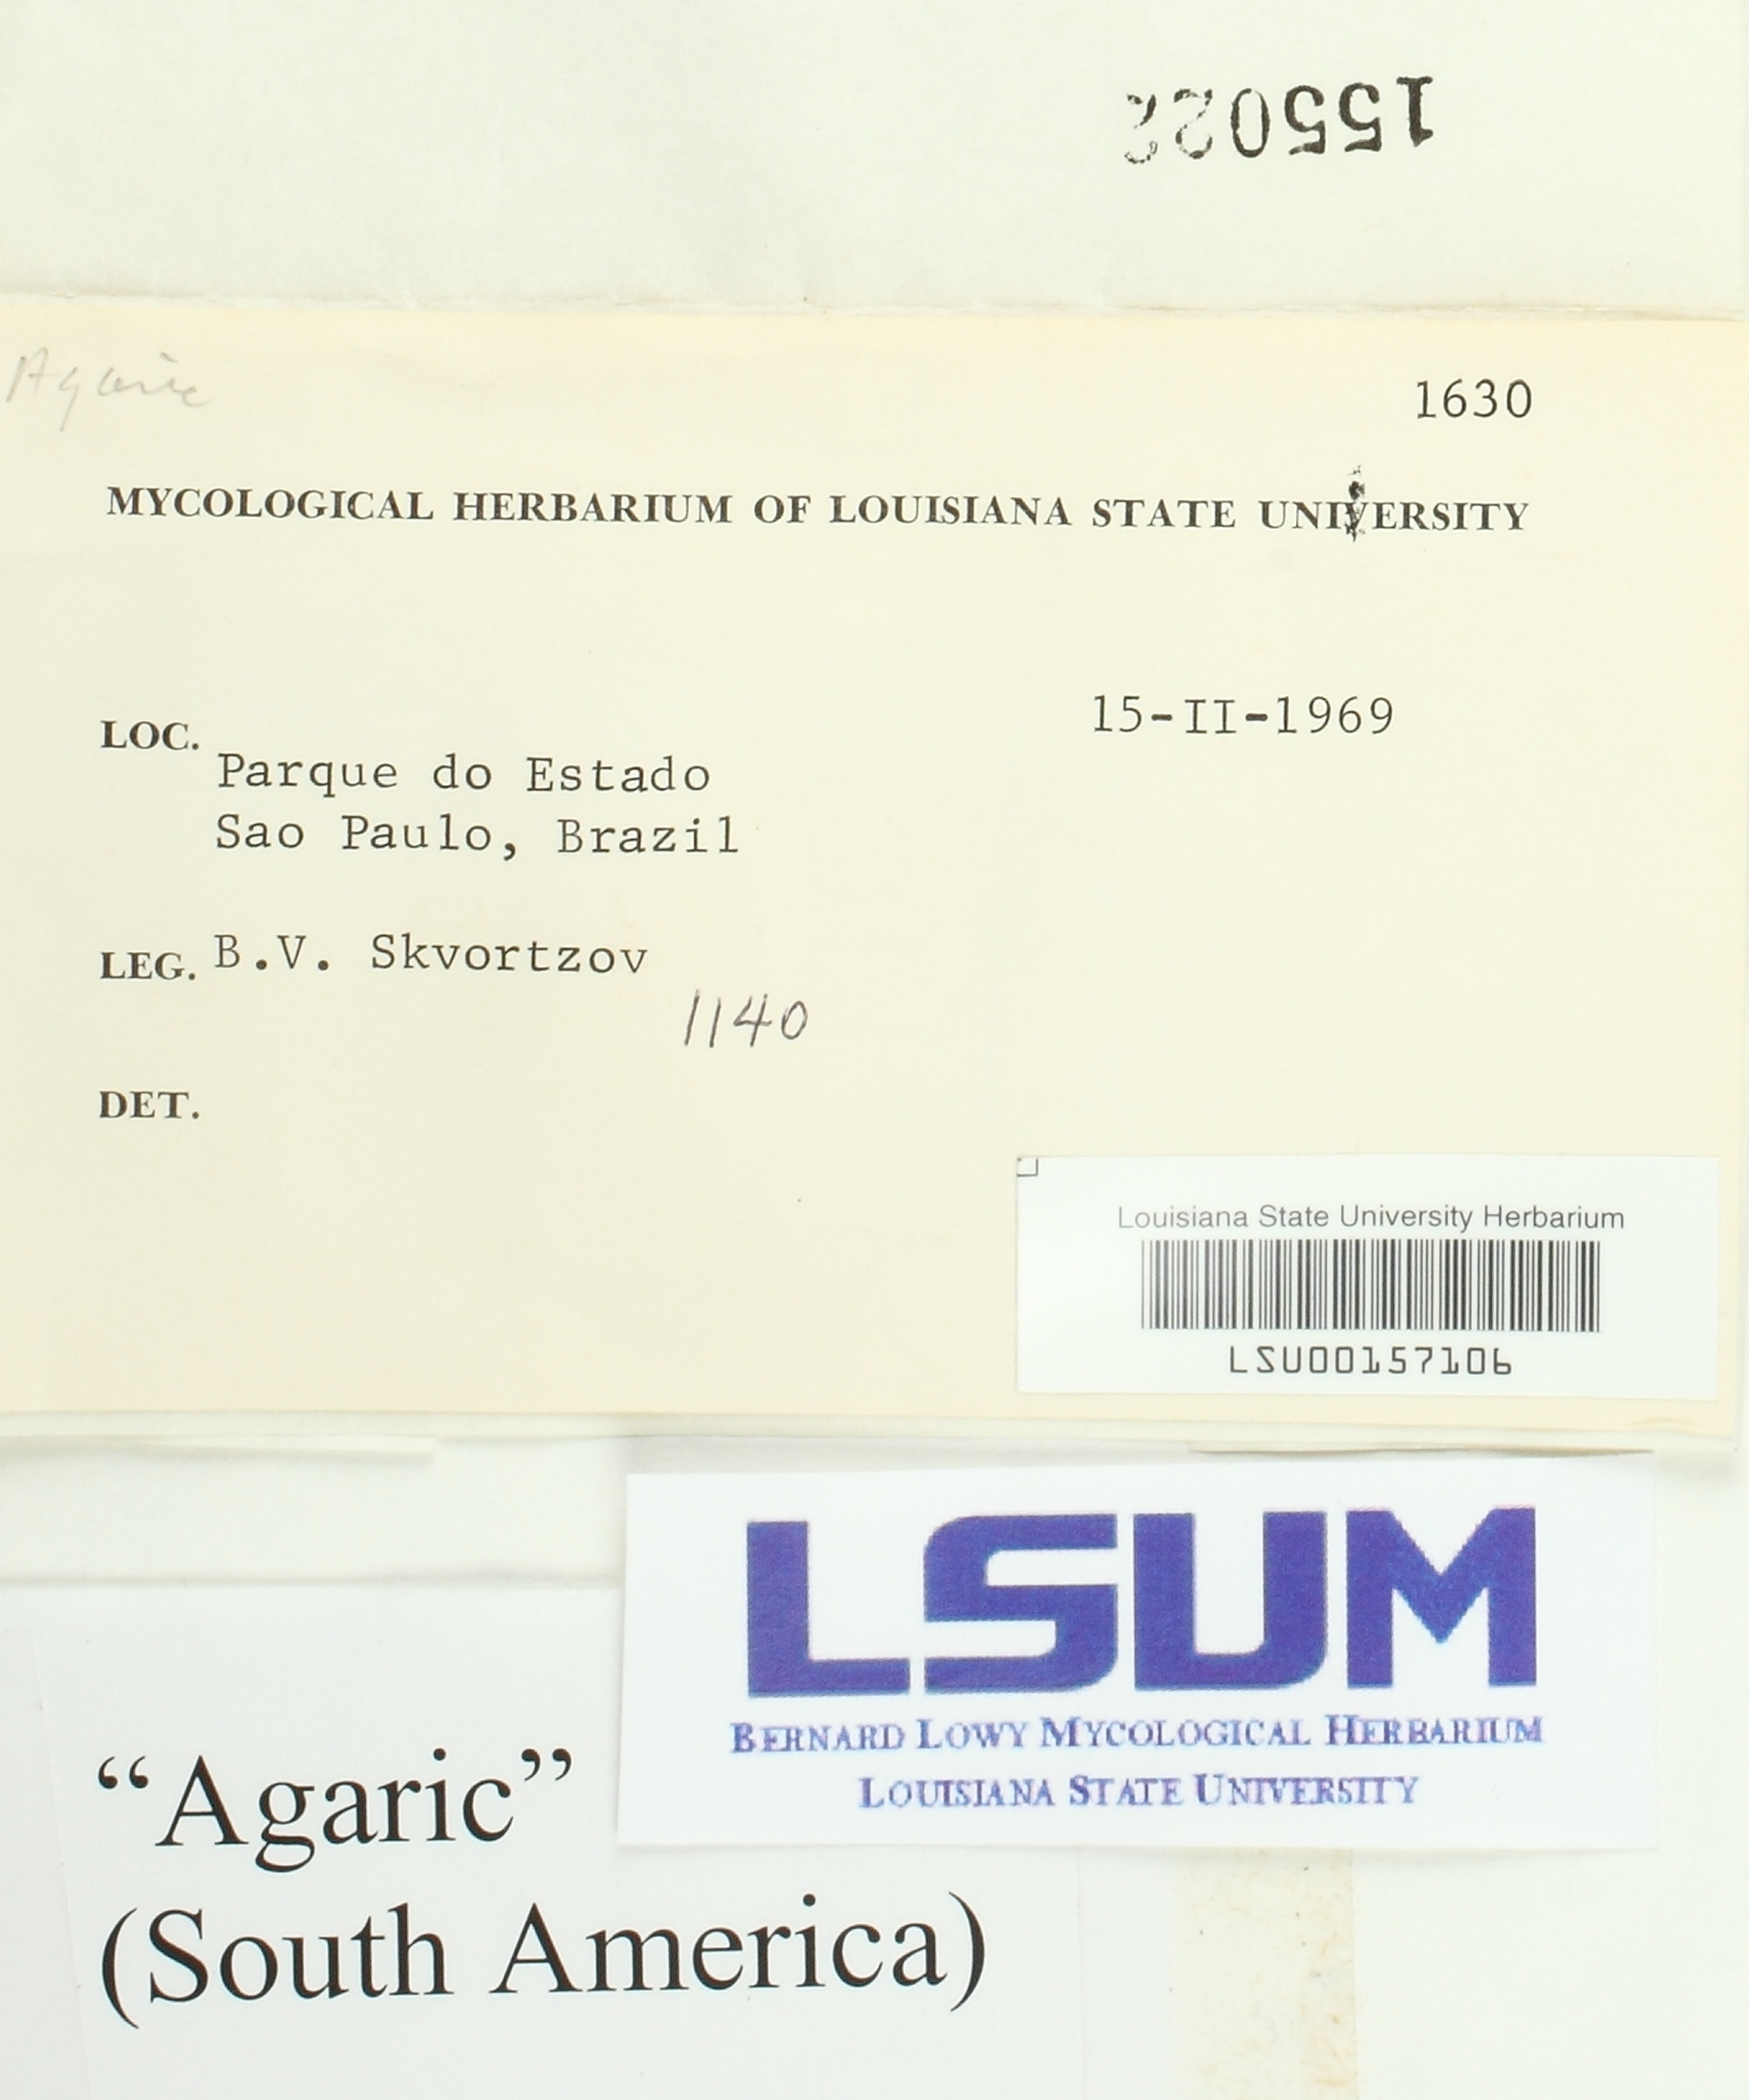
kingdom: Fungi
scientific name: Fungi
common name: Fungi
